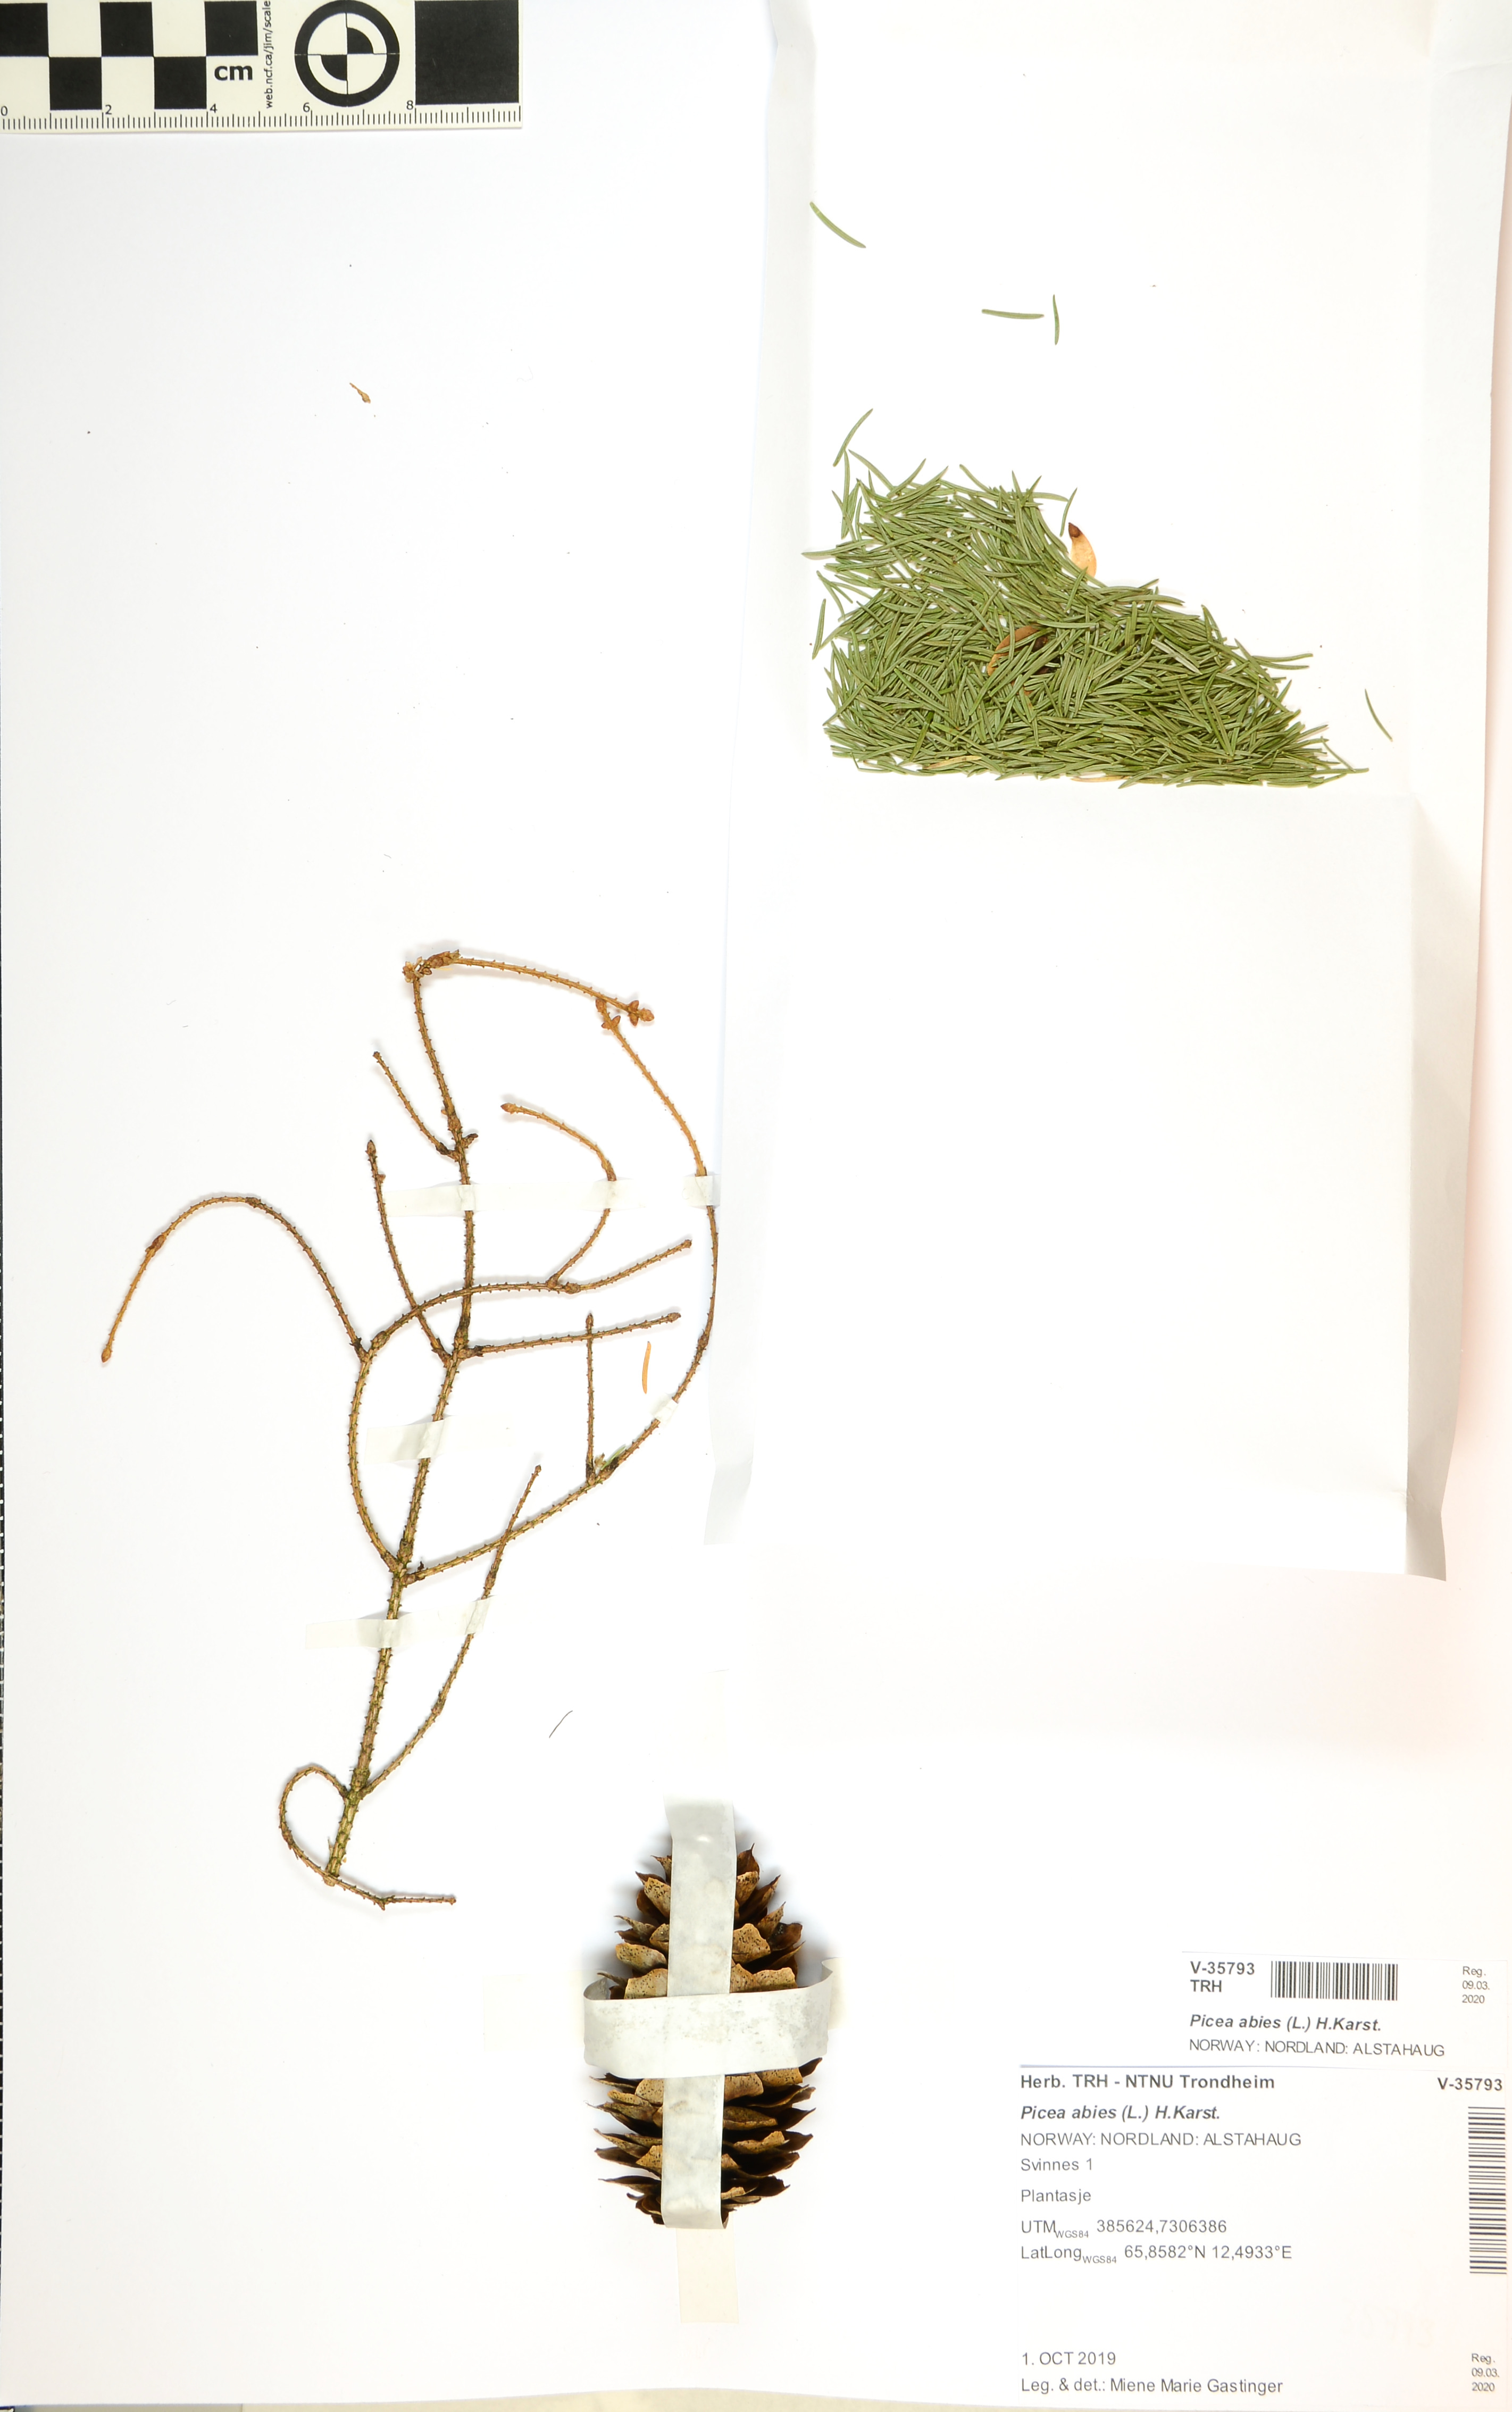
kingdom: Plantae
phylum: Tracheophyta
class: Pinopsida
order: Pinales
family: Pinaceae
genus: Picea
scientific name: Picea abies
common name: Norway spruce
